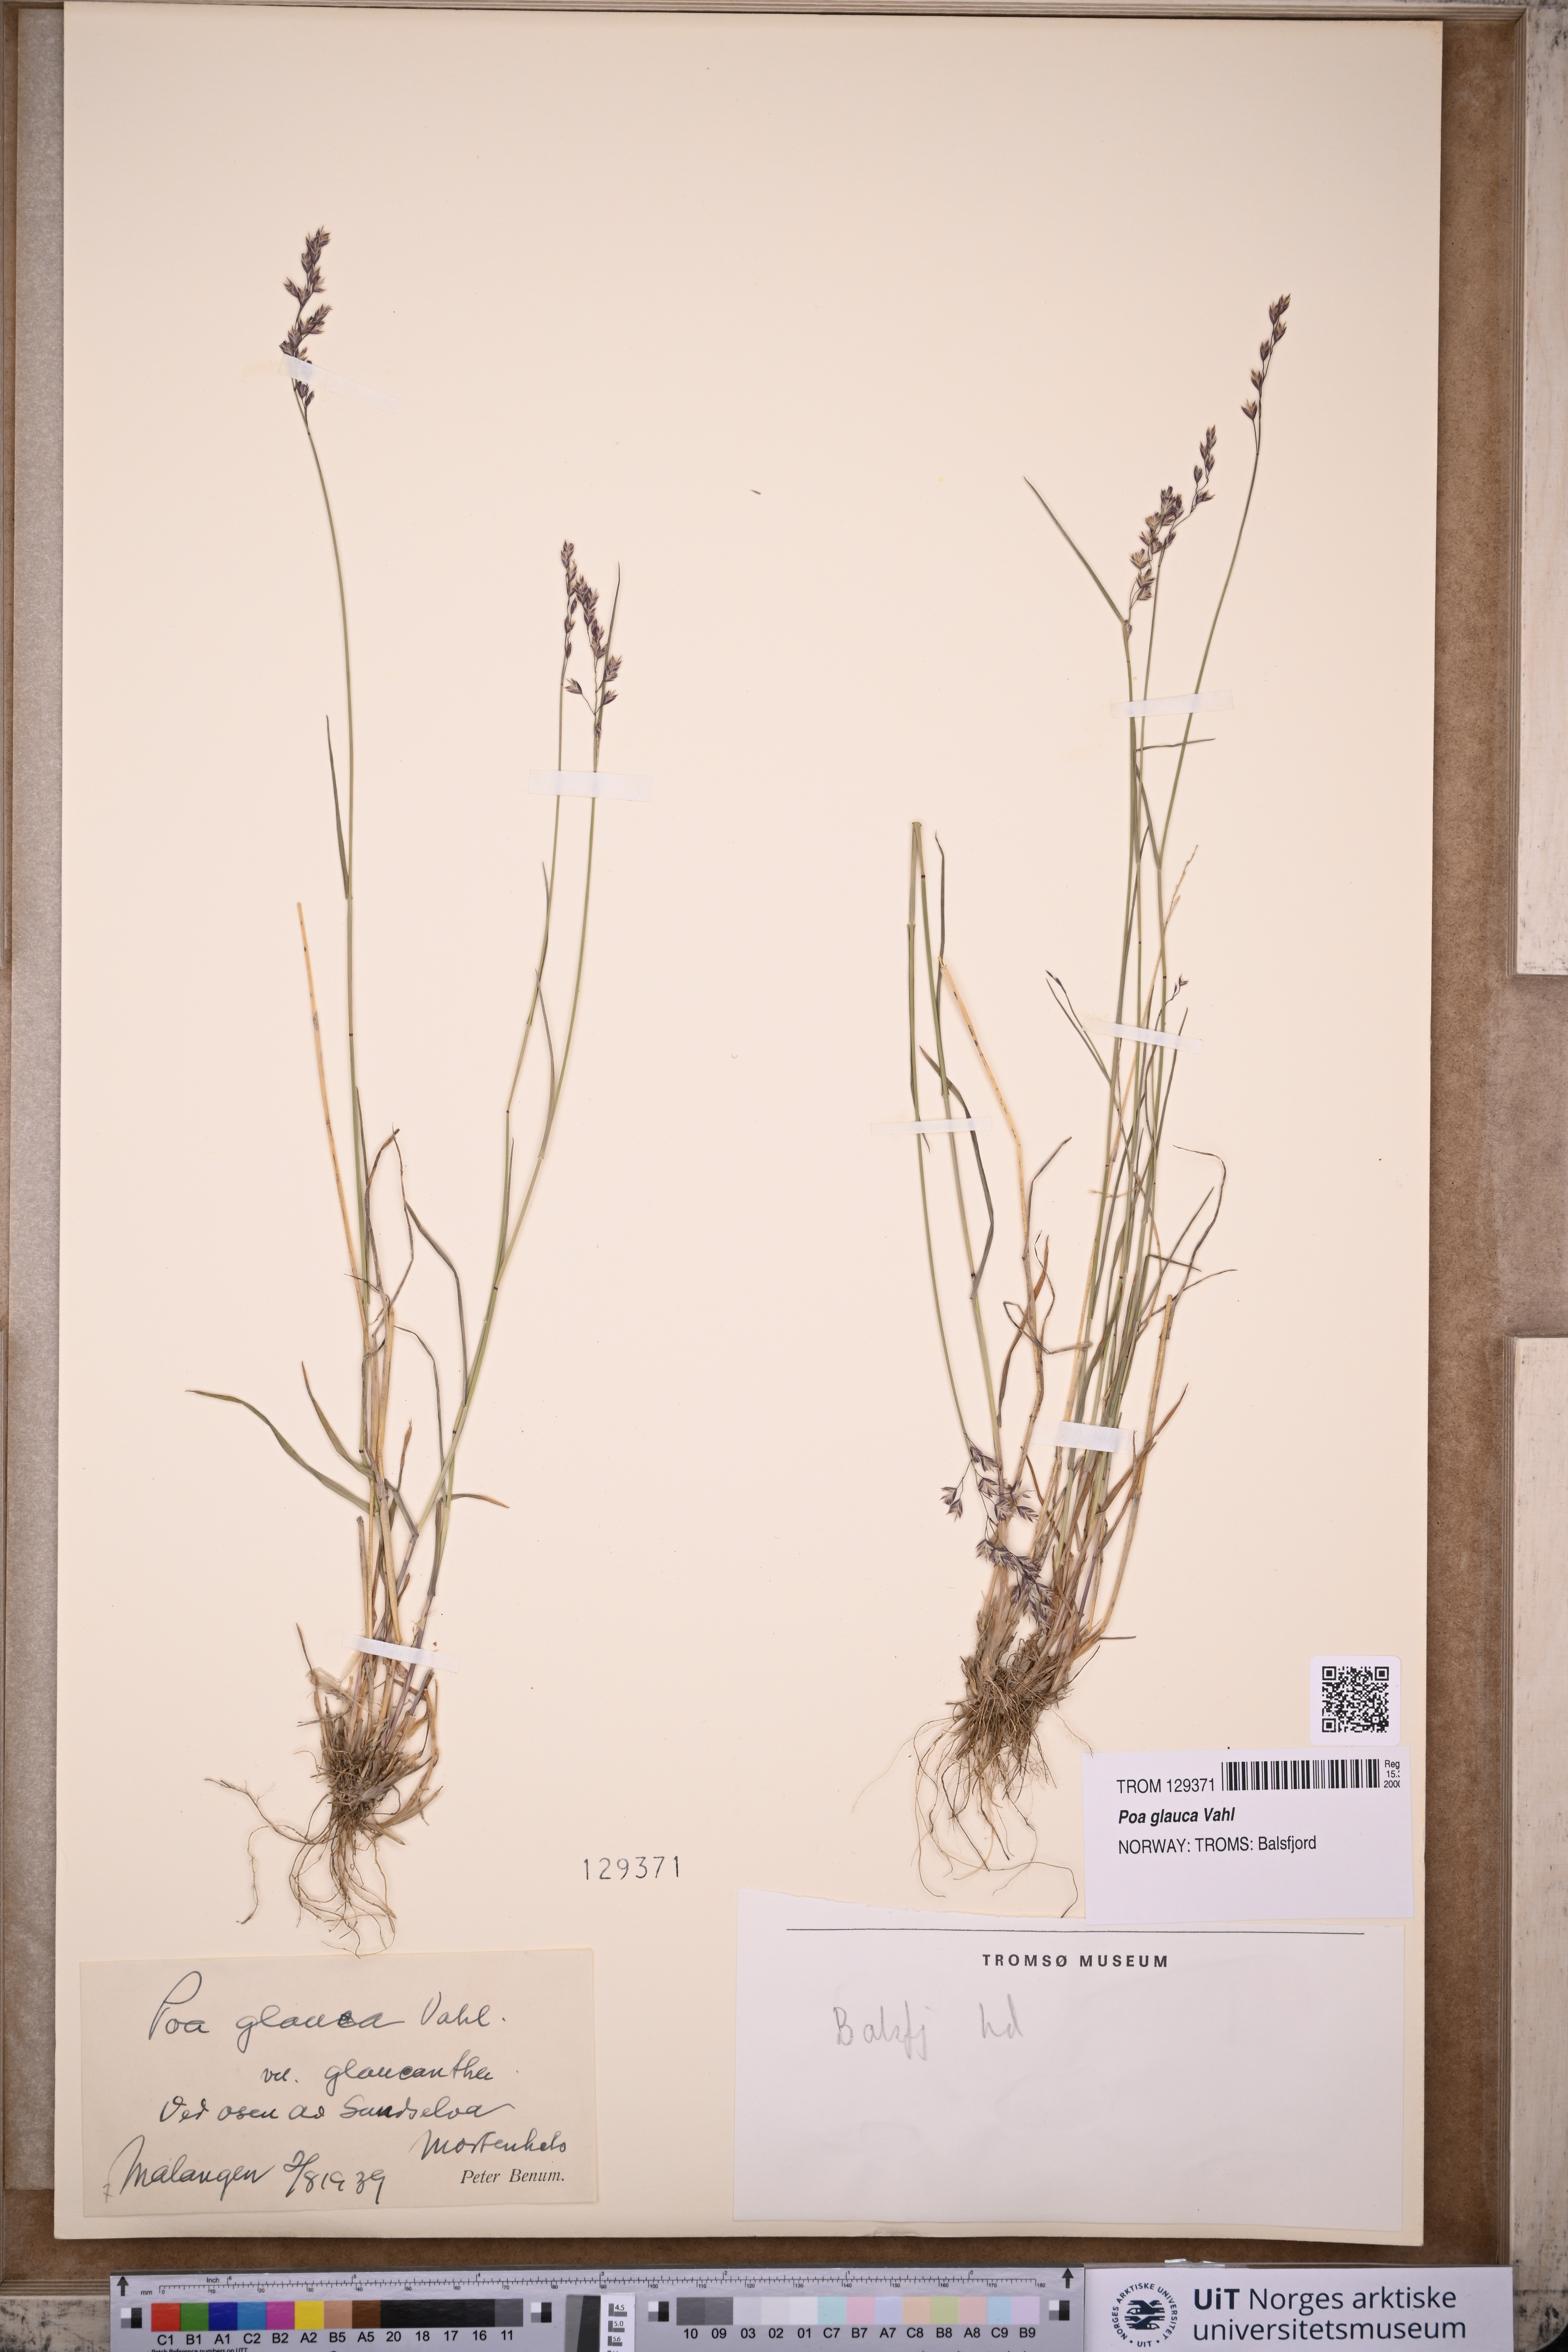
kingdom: Plantae
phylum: Tracheophyta
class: Liliopsida
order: Poales
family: Poaceae
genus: Poa
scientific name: Poa glauca
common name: Glaucous bluegrass
